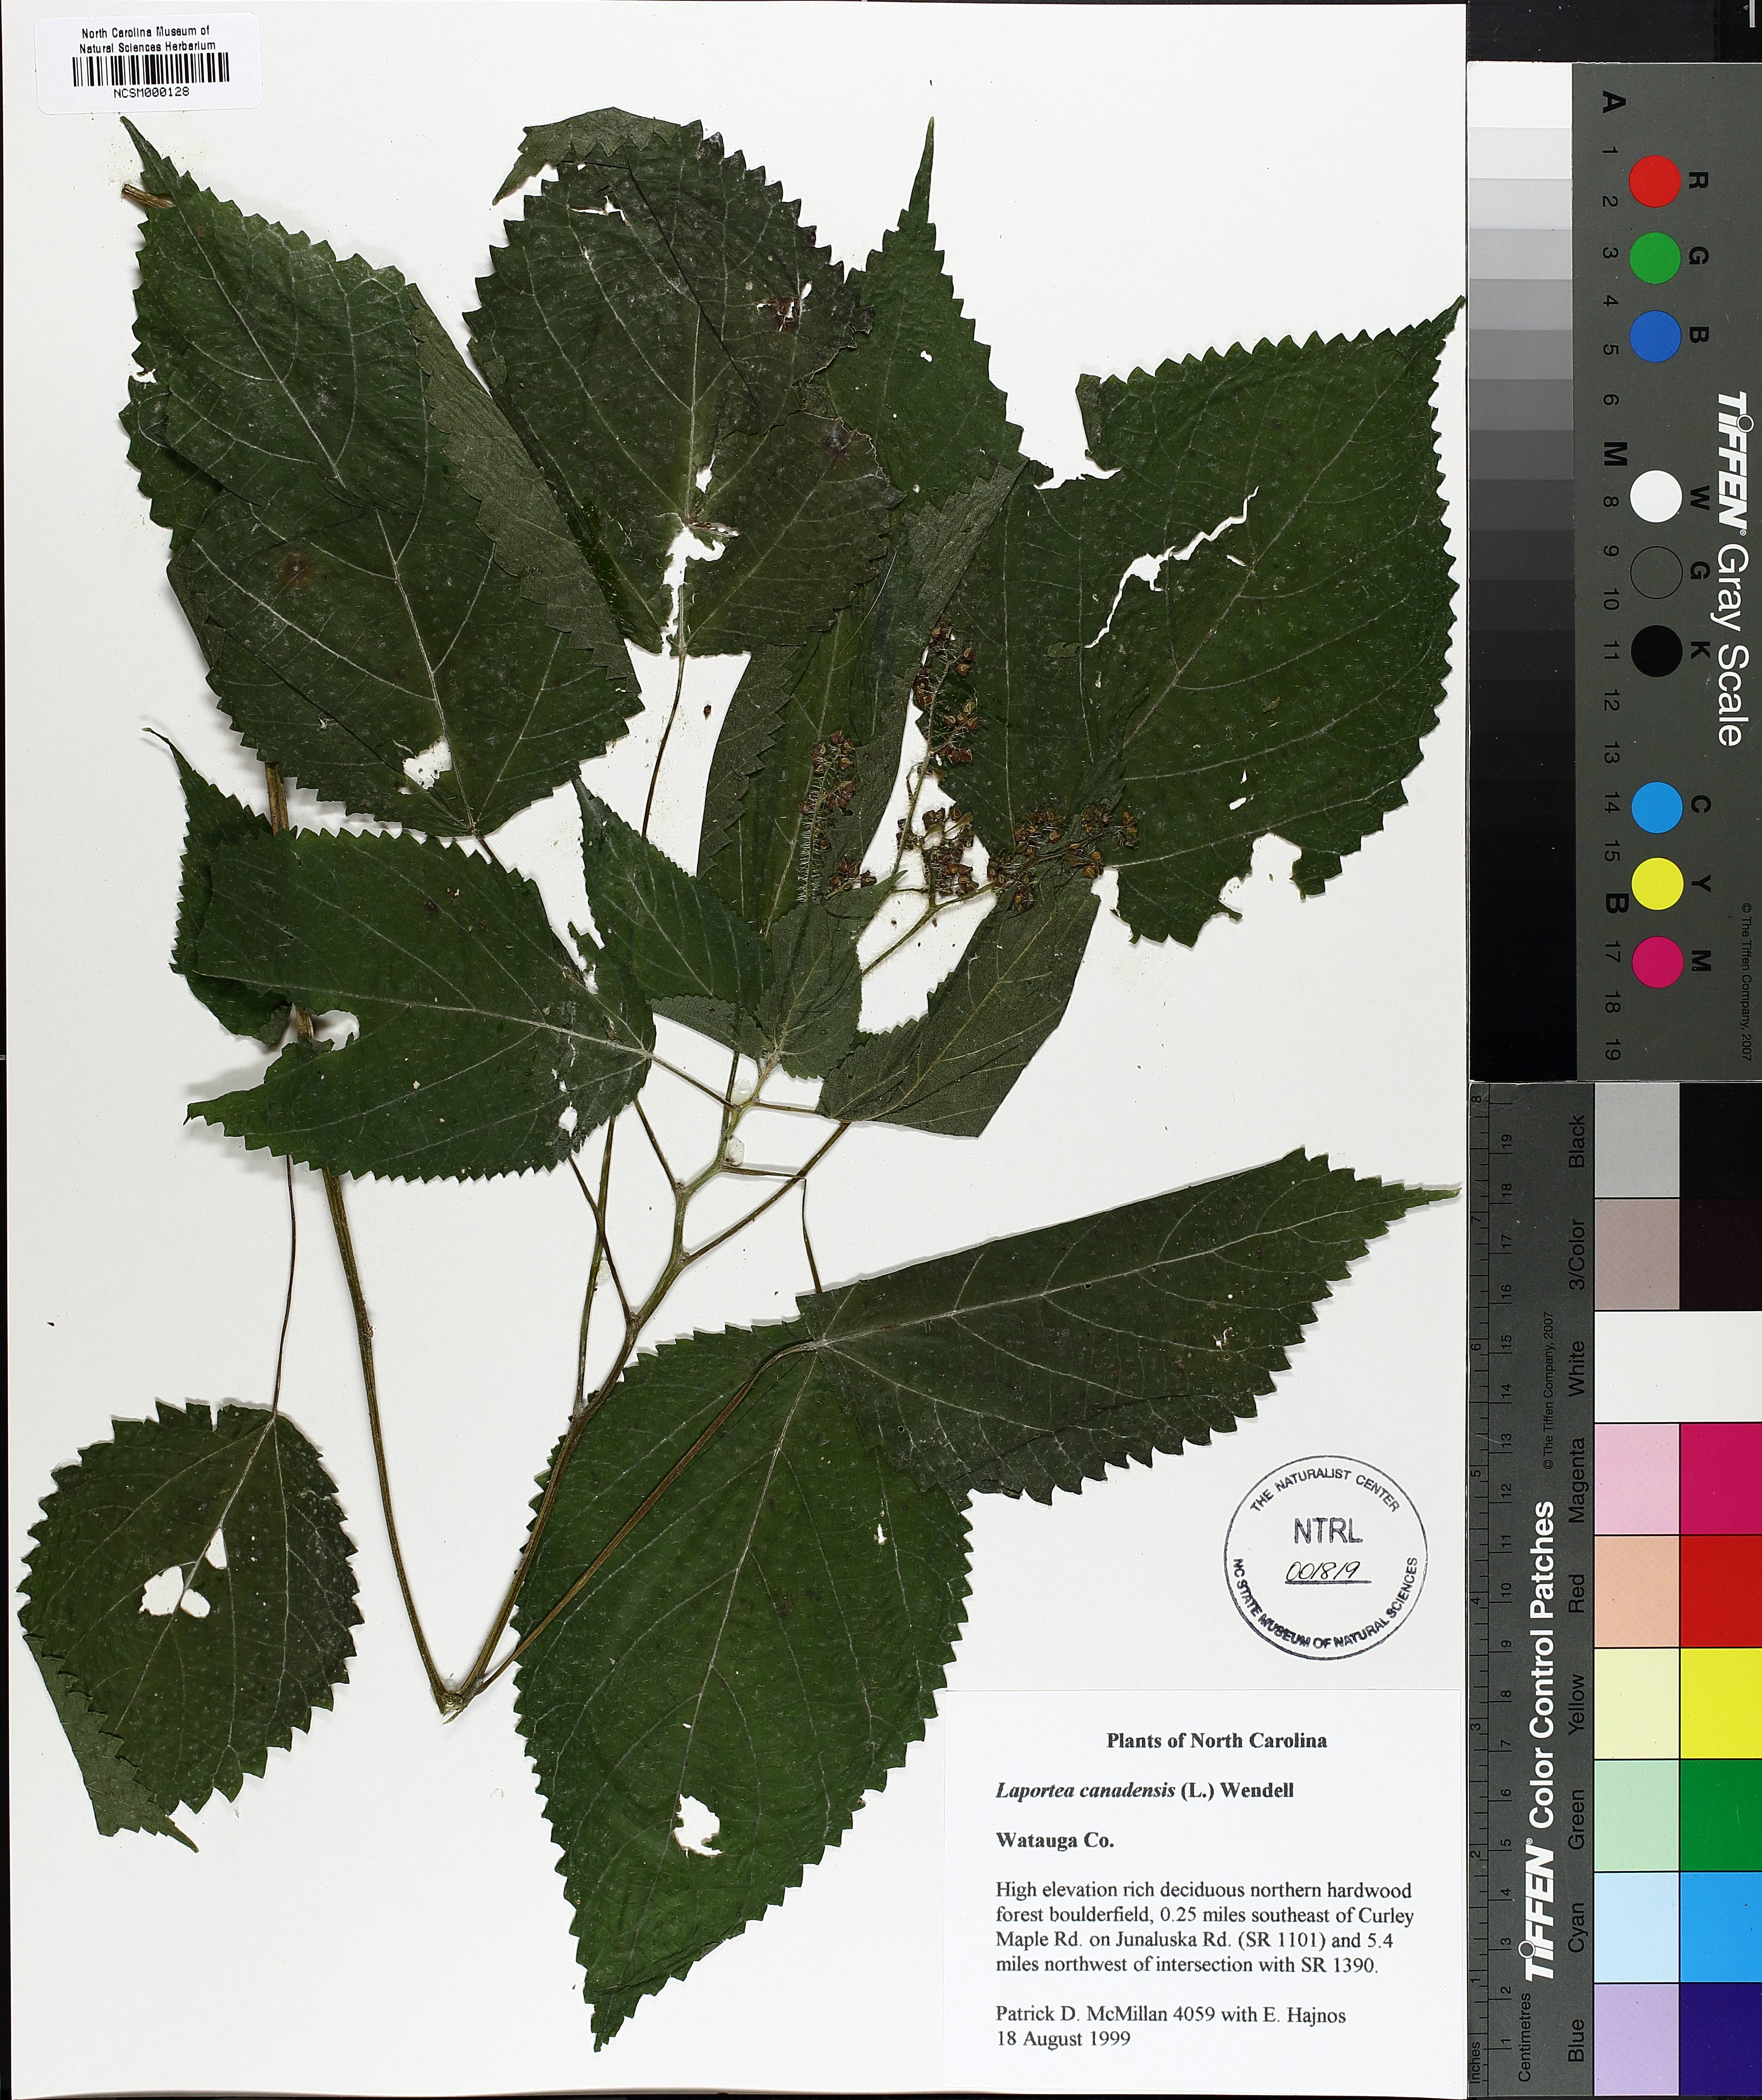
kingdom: Plantae
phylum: Tracheophyta
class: Magnoliopsida
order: Rosales
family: Urticaceae
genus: Laportea
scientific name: Laportea canadensis
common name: Canada nettle
